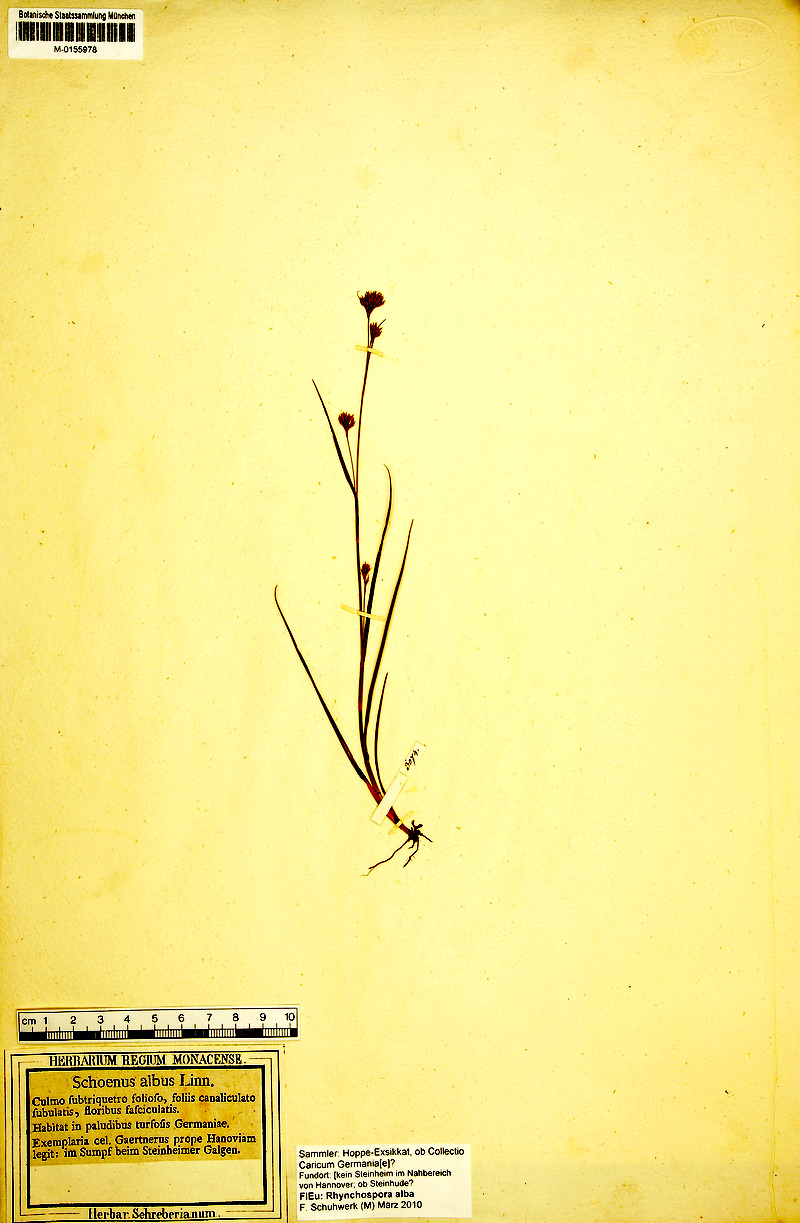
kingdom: Plantae
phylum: Tracheophyta
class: Liliopsida
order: Poales
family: Cyperaceae
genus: Rhynchospora
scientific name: Rhynchospora alba
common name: White beak-sedge
